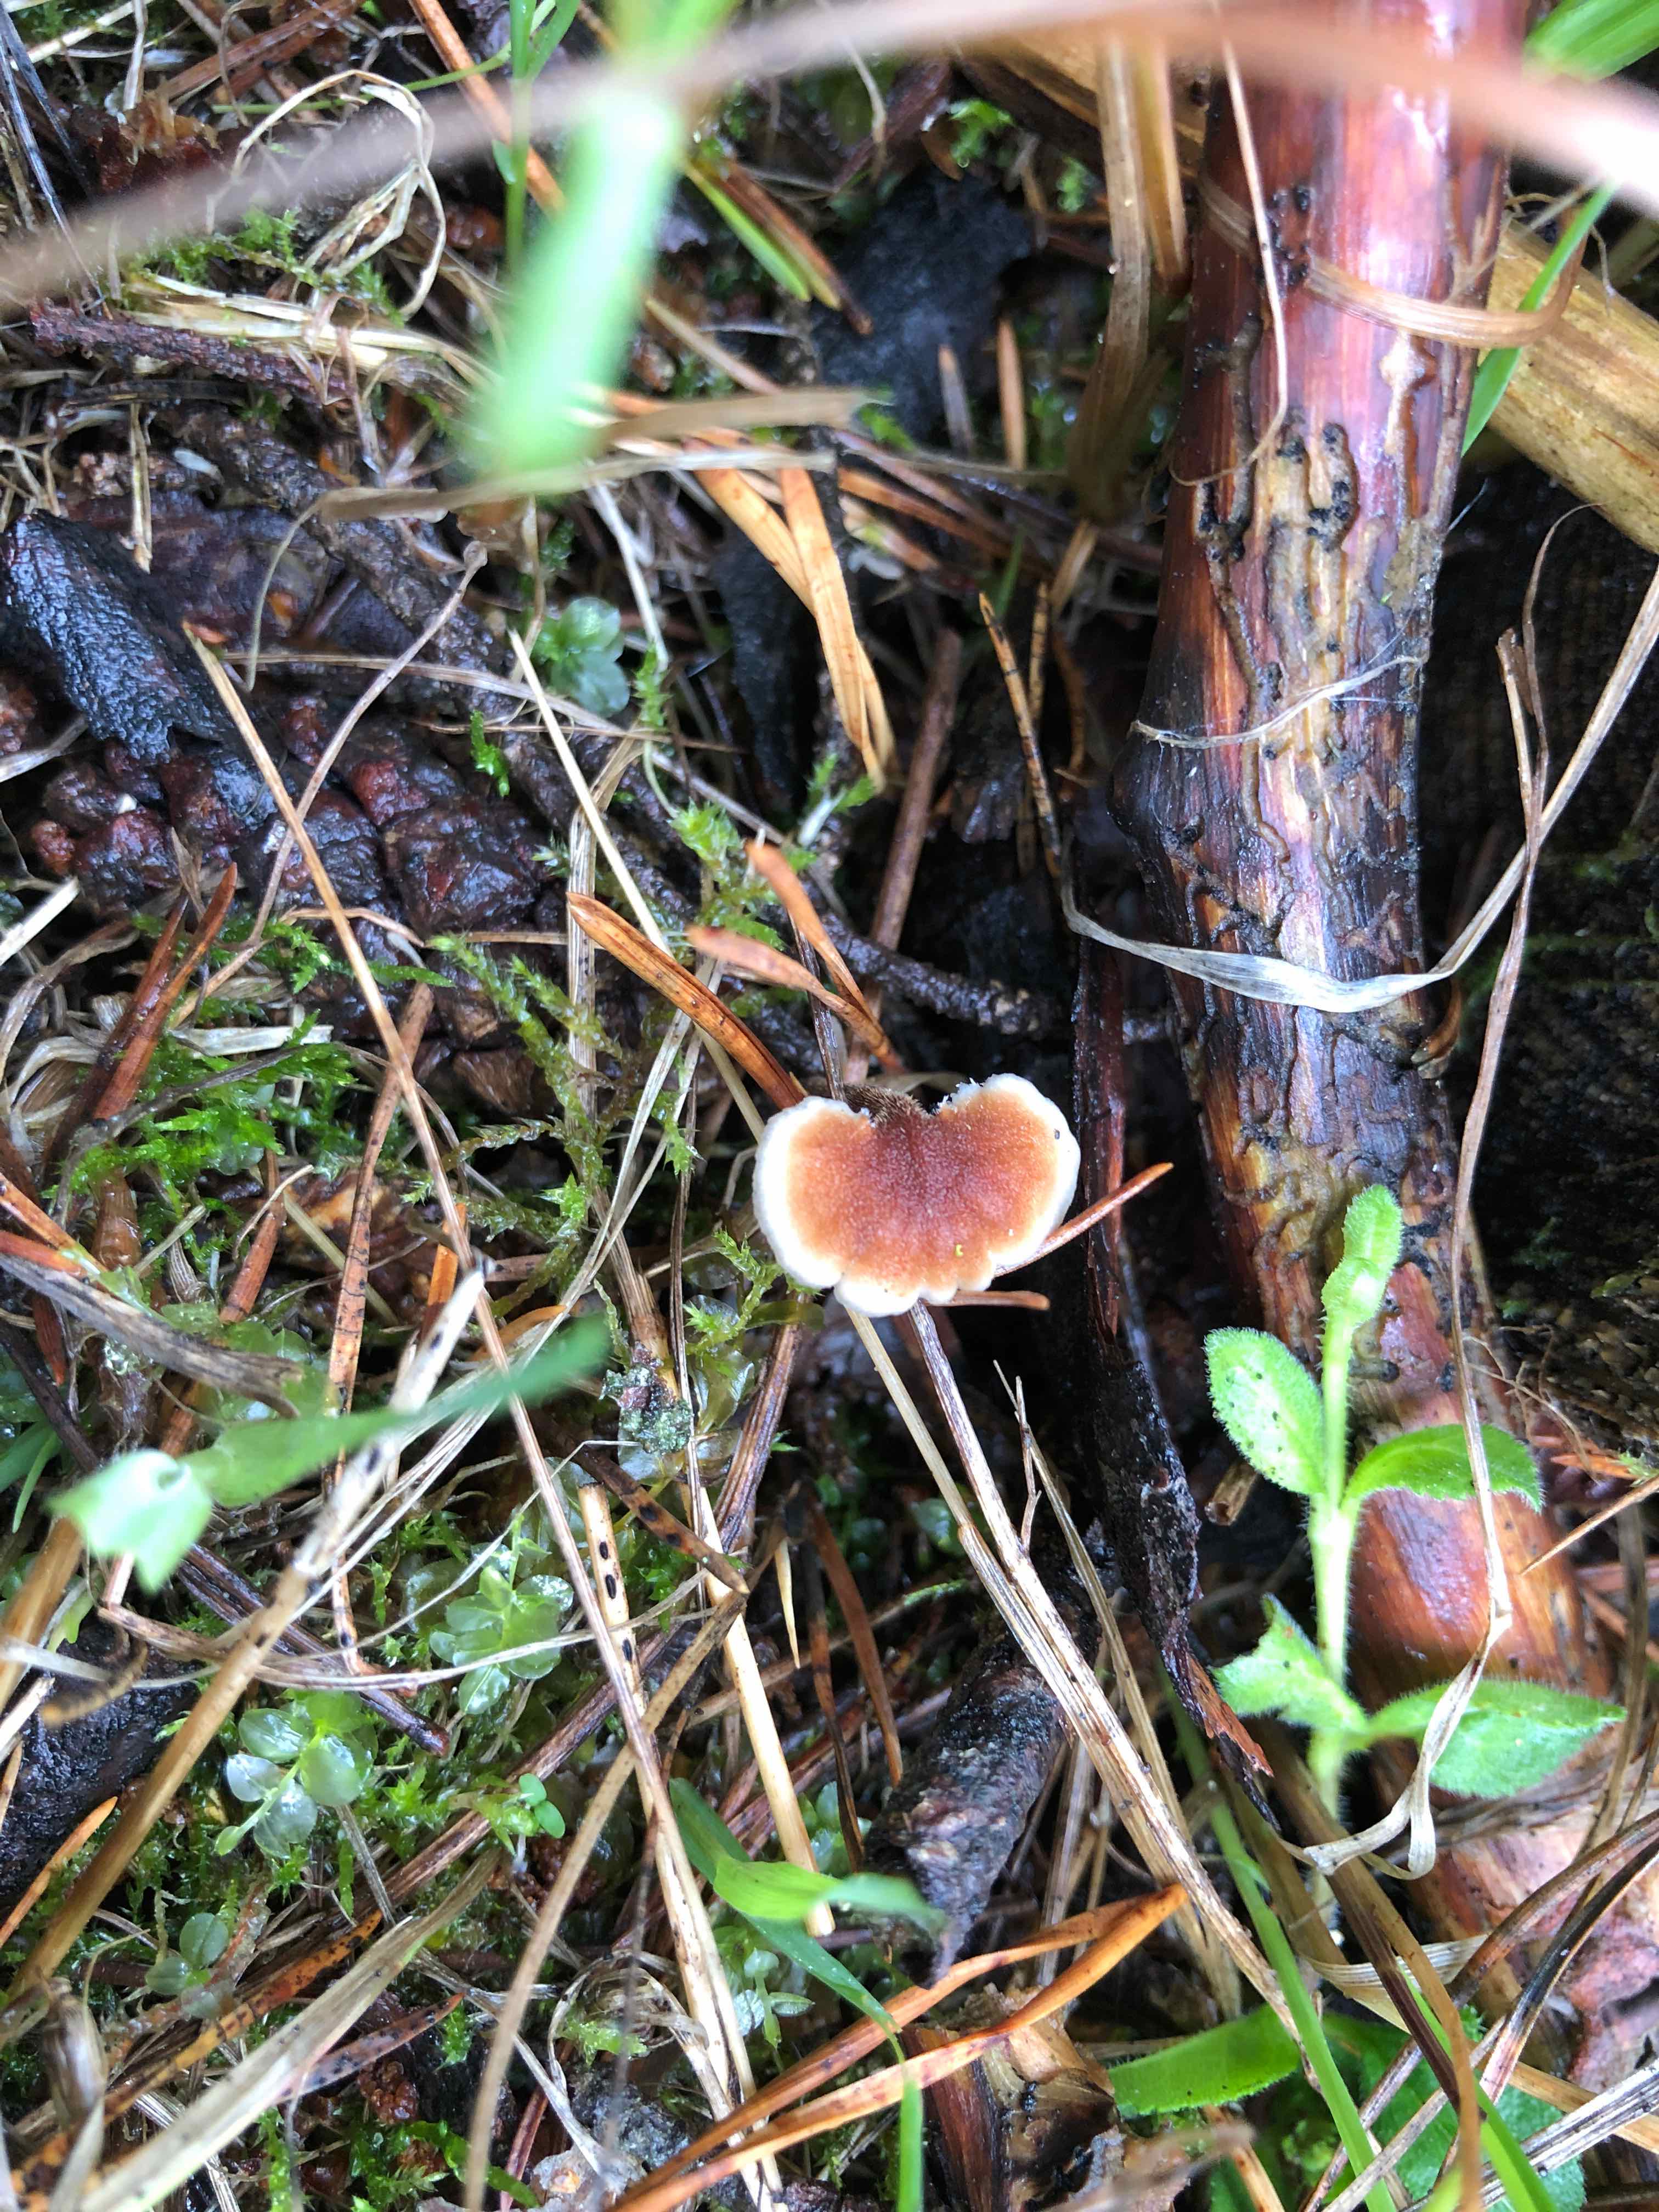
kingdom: Fungi
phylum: Basidiomycota
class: Agaricomycetes
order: Russulales
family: Auriscalpiaceae
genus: Auriscalpium
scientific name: Auriscalpium vulgare
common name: koglepigsvamp
